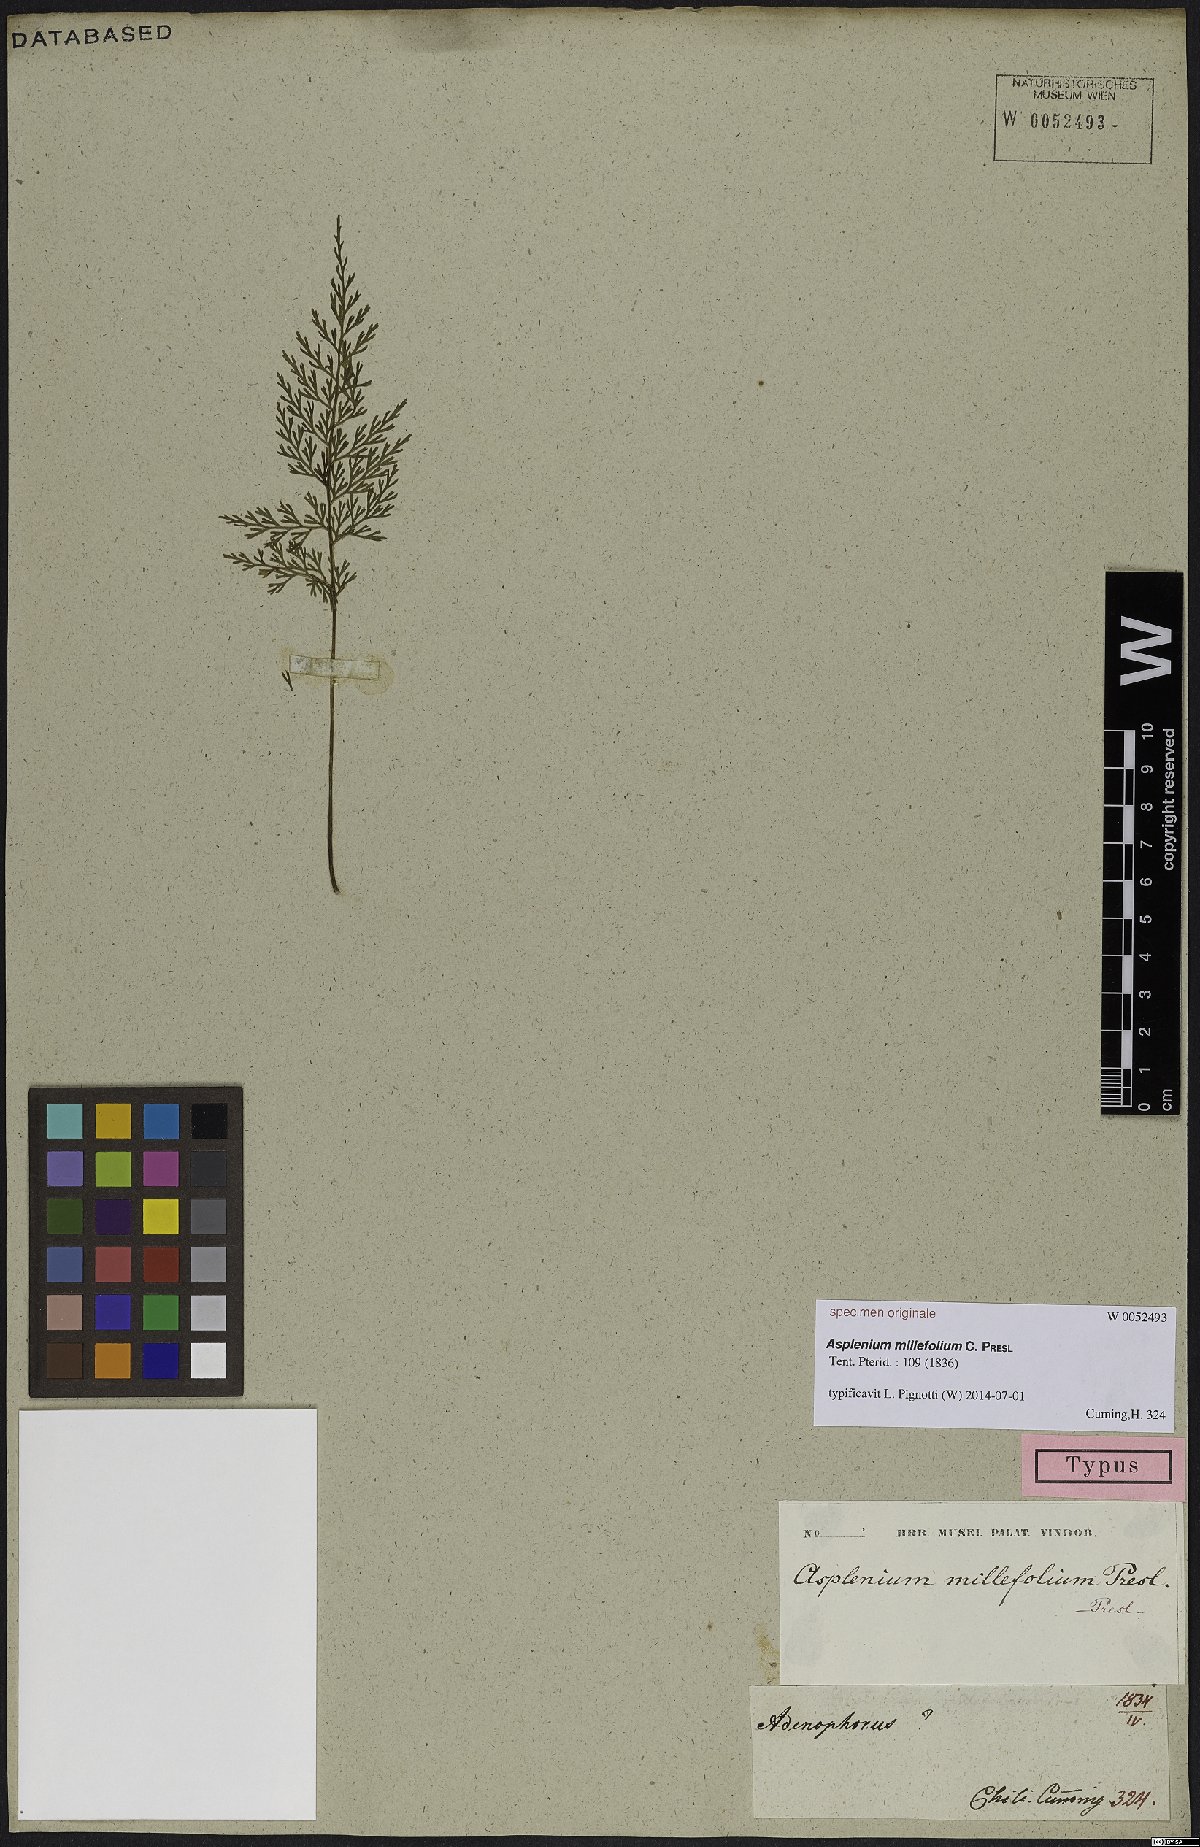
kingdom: Plantae
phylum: Tracheophyta
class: Polypodiopsida
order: Polypodiales
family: Aspleniaceae
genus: Asplenium
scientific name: Asplenium millefolium
